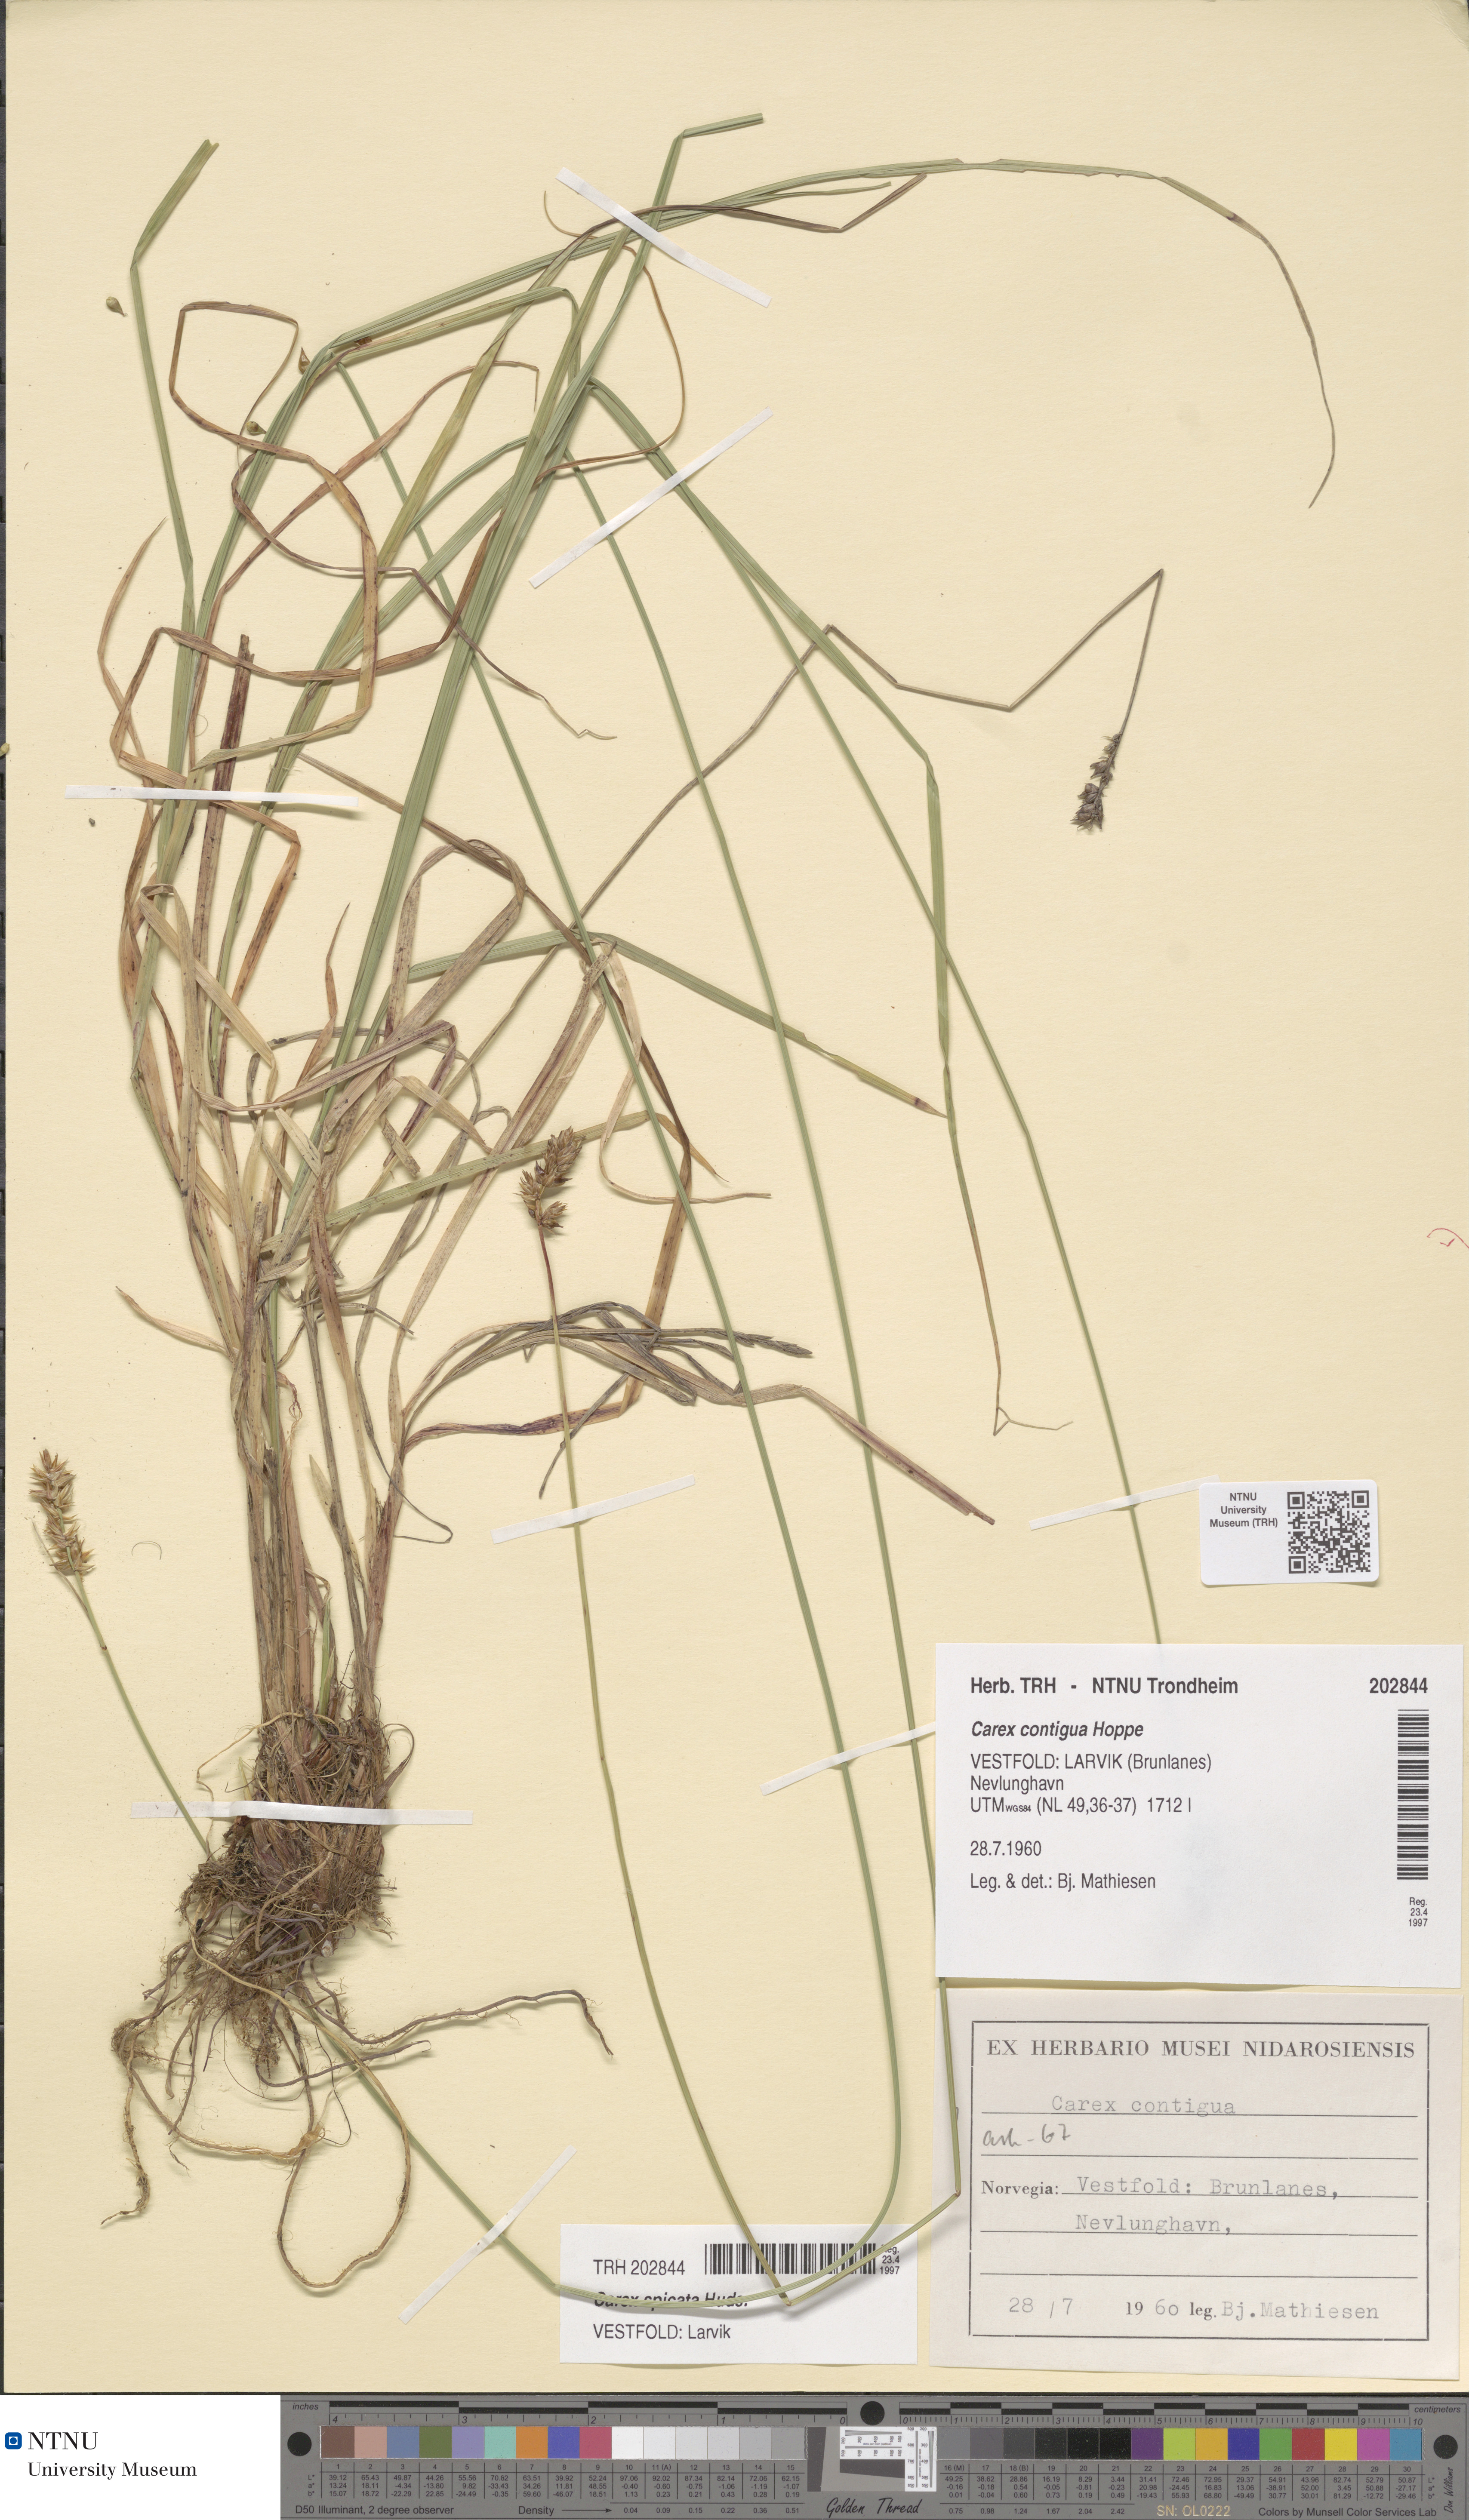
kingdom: Plantae
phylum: Tracheophyta
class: Liliopsida
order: Poales
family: Cyperaceae
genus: Carex
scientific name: Carex spicata
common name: Spiked sedge
